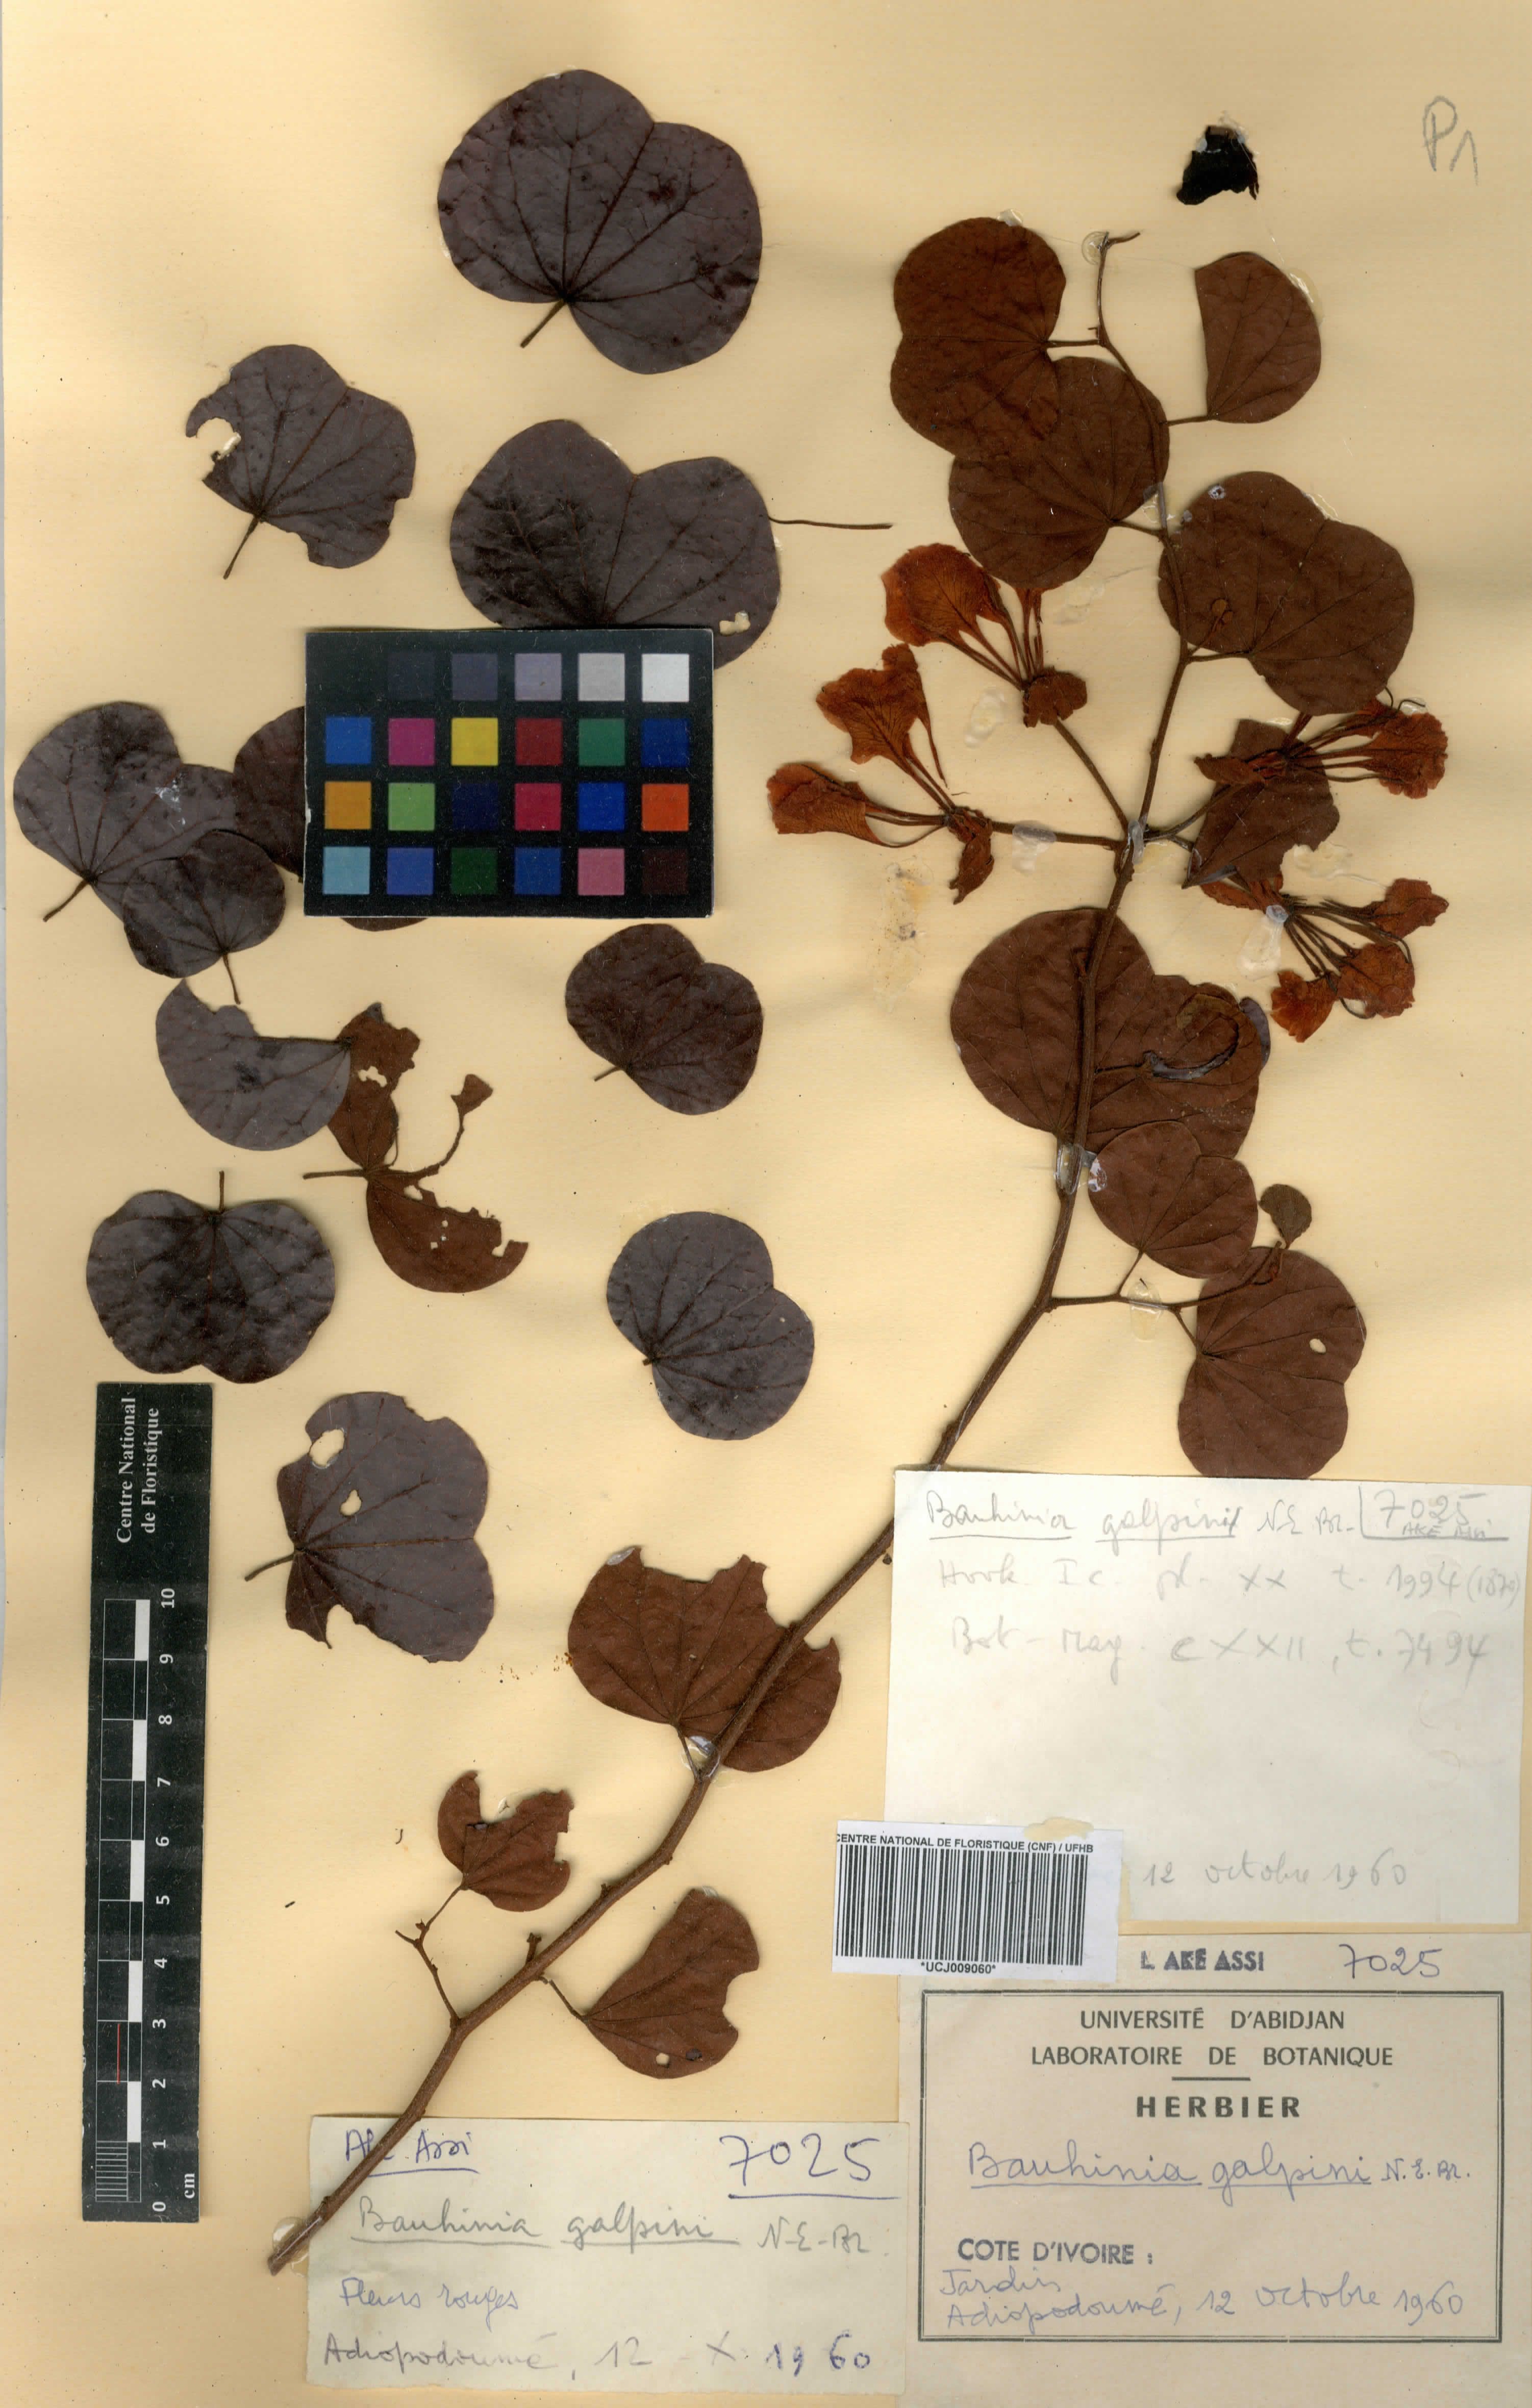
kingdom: Plantae
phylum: Tracheophyta
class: Magnoliopsida
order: Fabales
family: Fabaceae
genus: Bauhinia
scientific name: Bauhinia galpinii
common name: African plume
